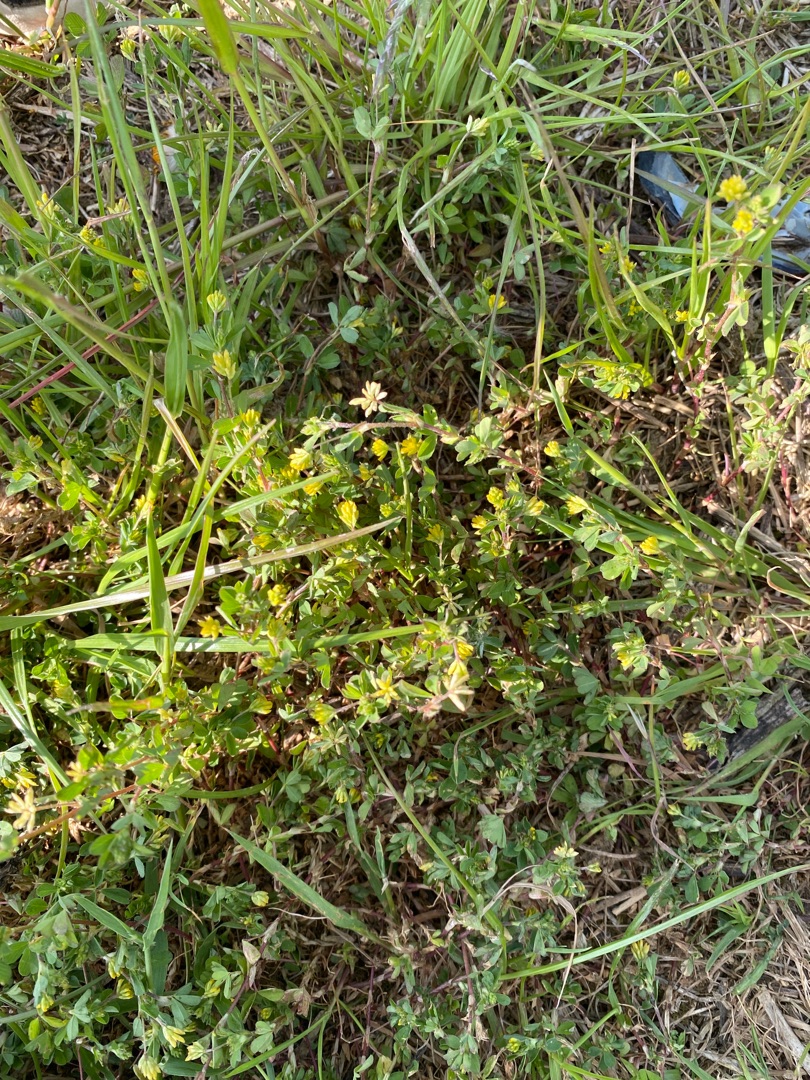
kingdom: Plantae
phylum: Tracheophyta
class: Magnoliopsida
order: Fabales
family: Fabaceae
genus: Trifolium
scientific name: Trifolium dubium
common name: Fin kløver
